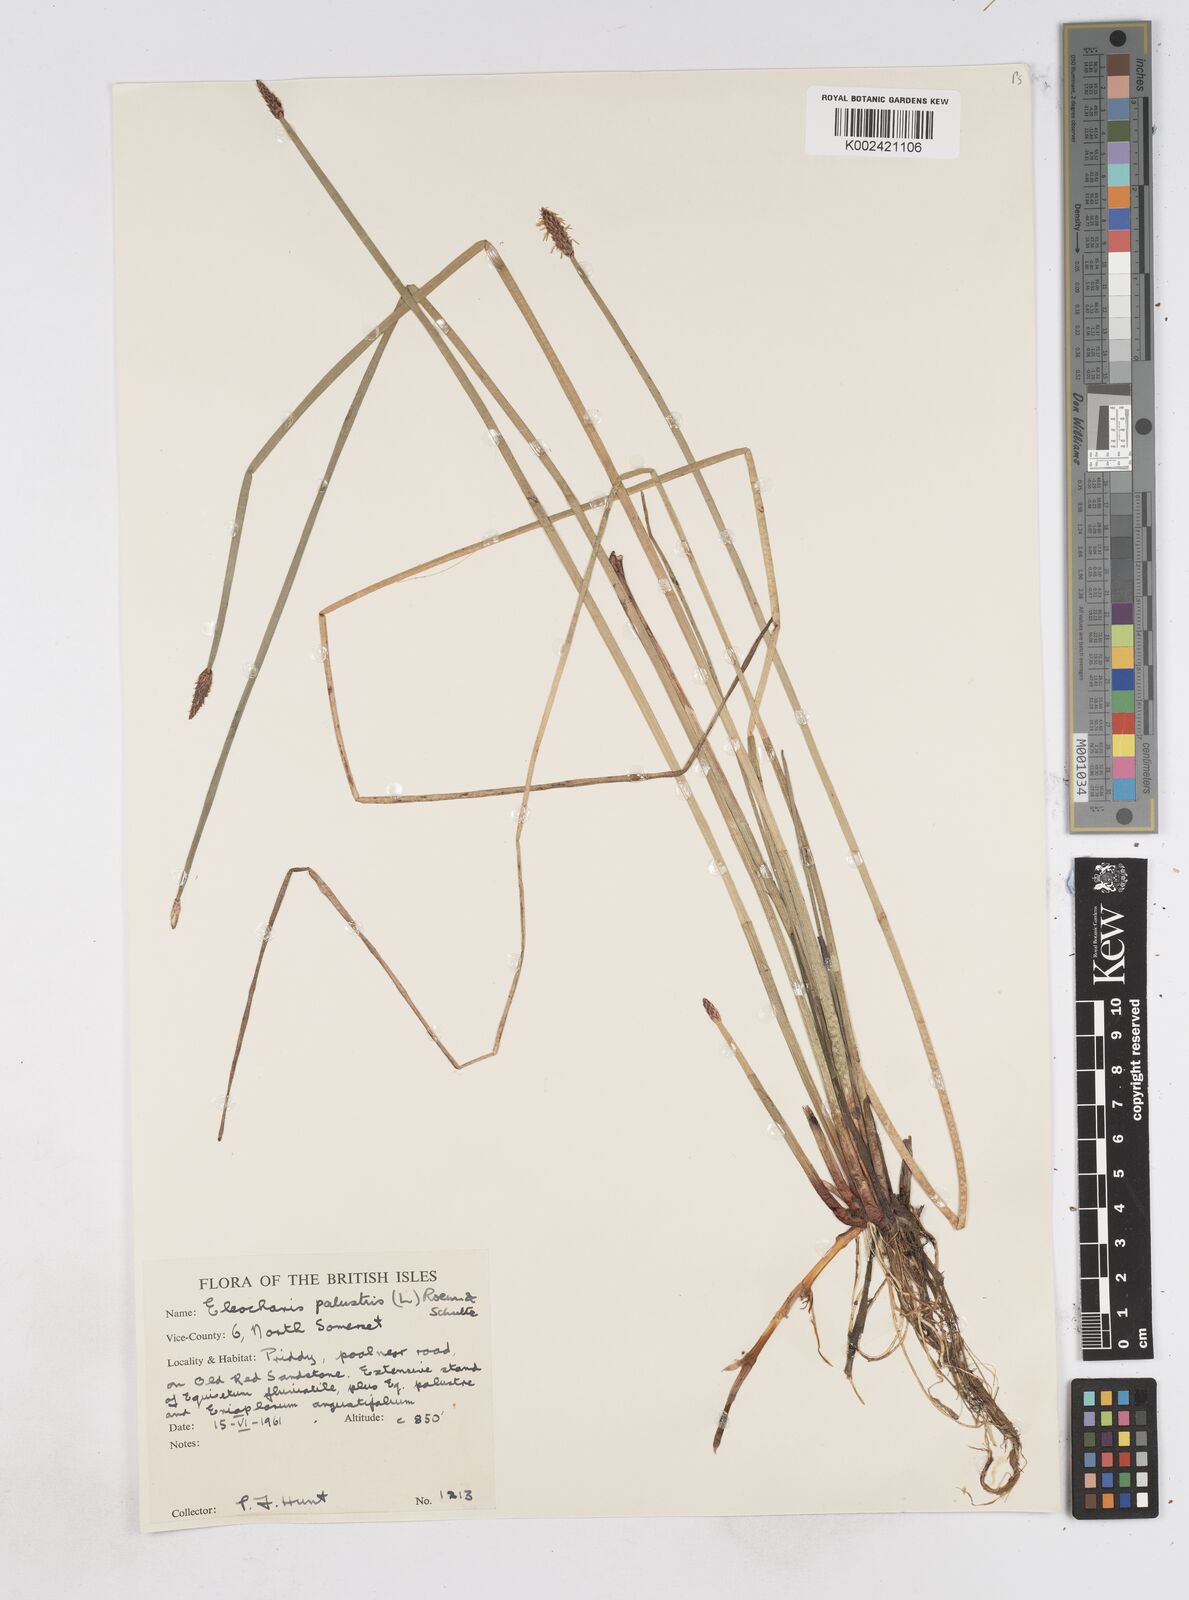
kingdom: Plantae
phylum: Tracheophyta
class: Liliopsida
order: Poales
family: Cyperaceae
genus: Eleocharis
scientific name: Eleocharis palustris
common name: Common spike-rush
